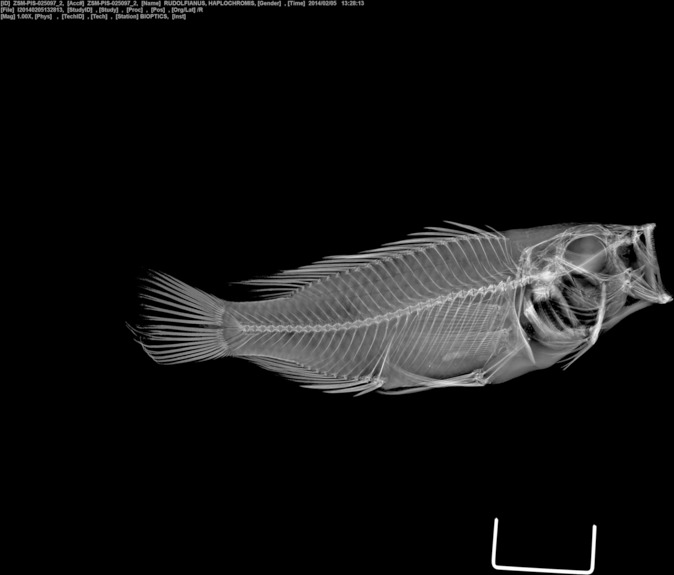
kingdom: Animalia
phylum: Chordata
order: Perciformes
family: Cichlidae
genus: Haplochromis
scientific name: Haplochromis rudolfianus
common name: Lake rudolf haplo
